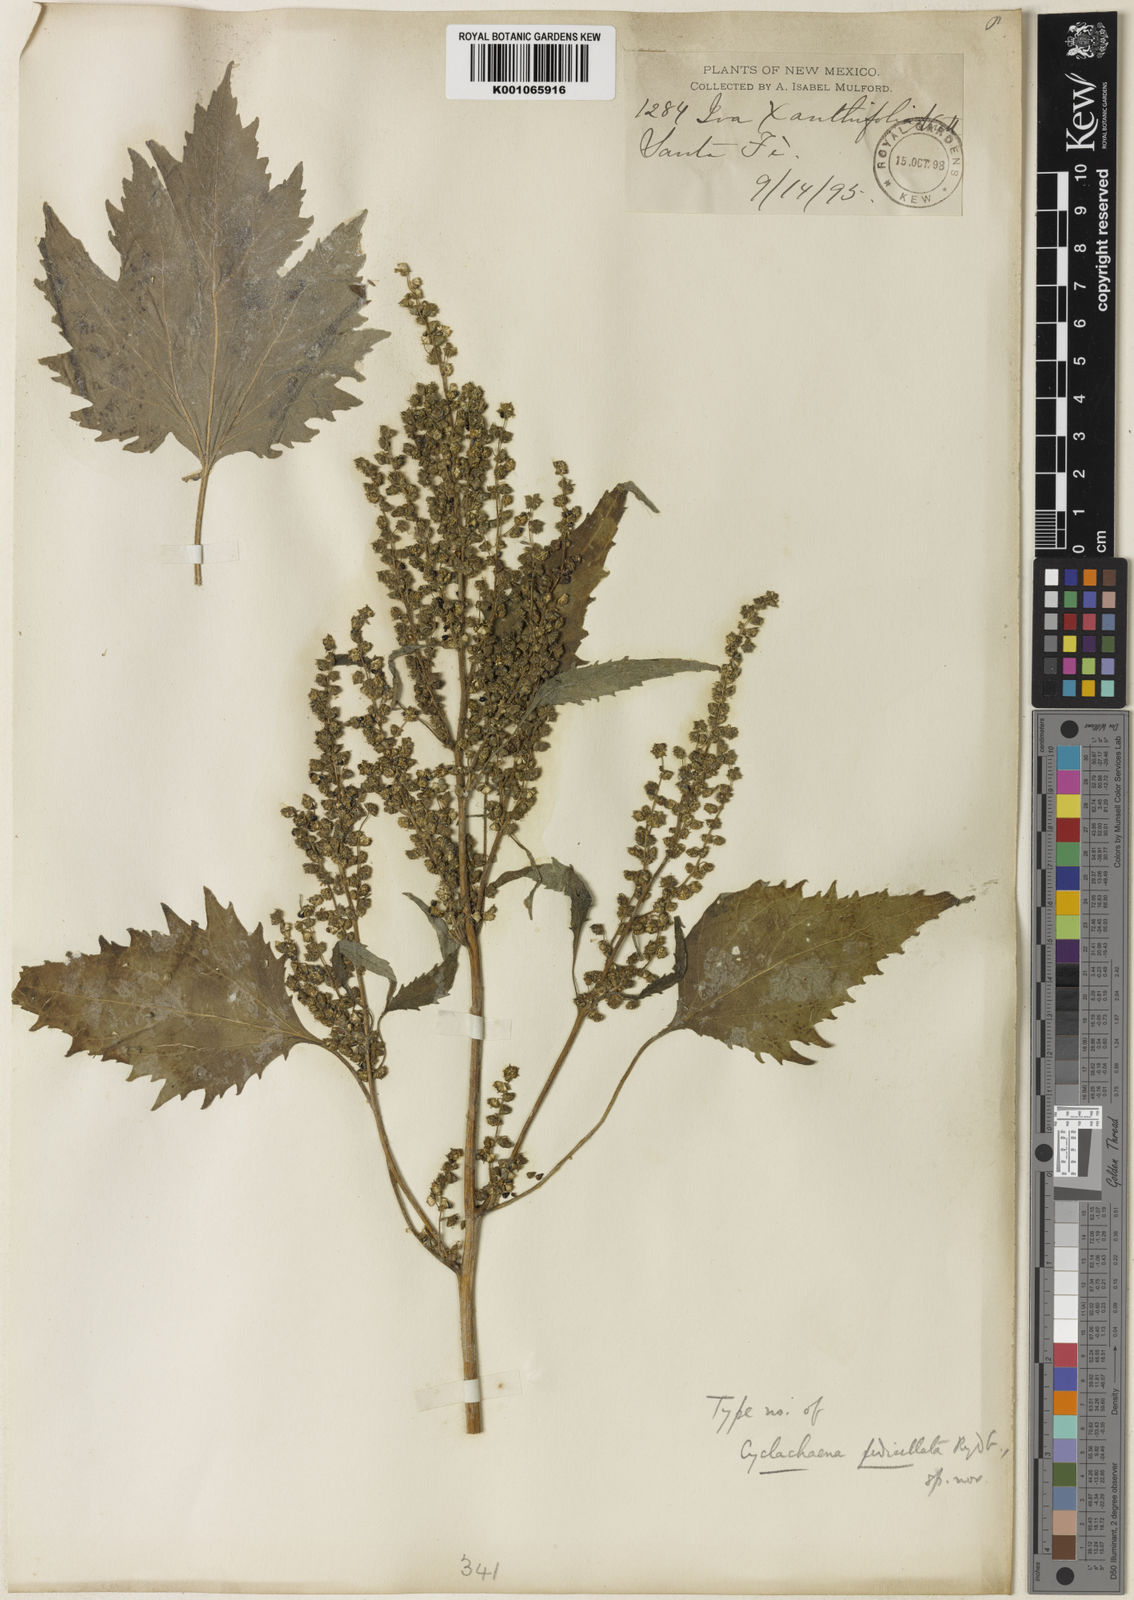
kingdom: Plantae
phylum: Tracheophyta
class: Magnoliopsida
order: Asterales
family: Asteraceae
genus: Euphrosyne
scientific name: Euphrosyne
